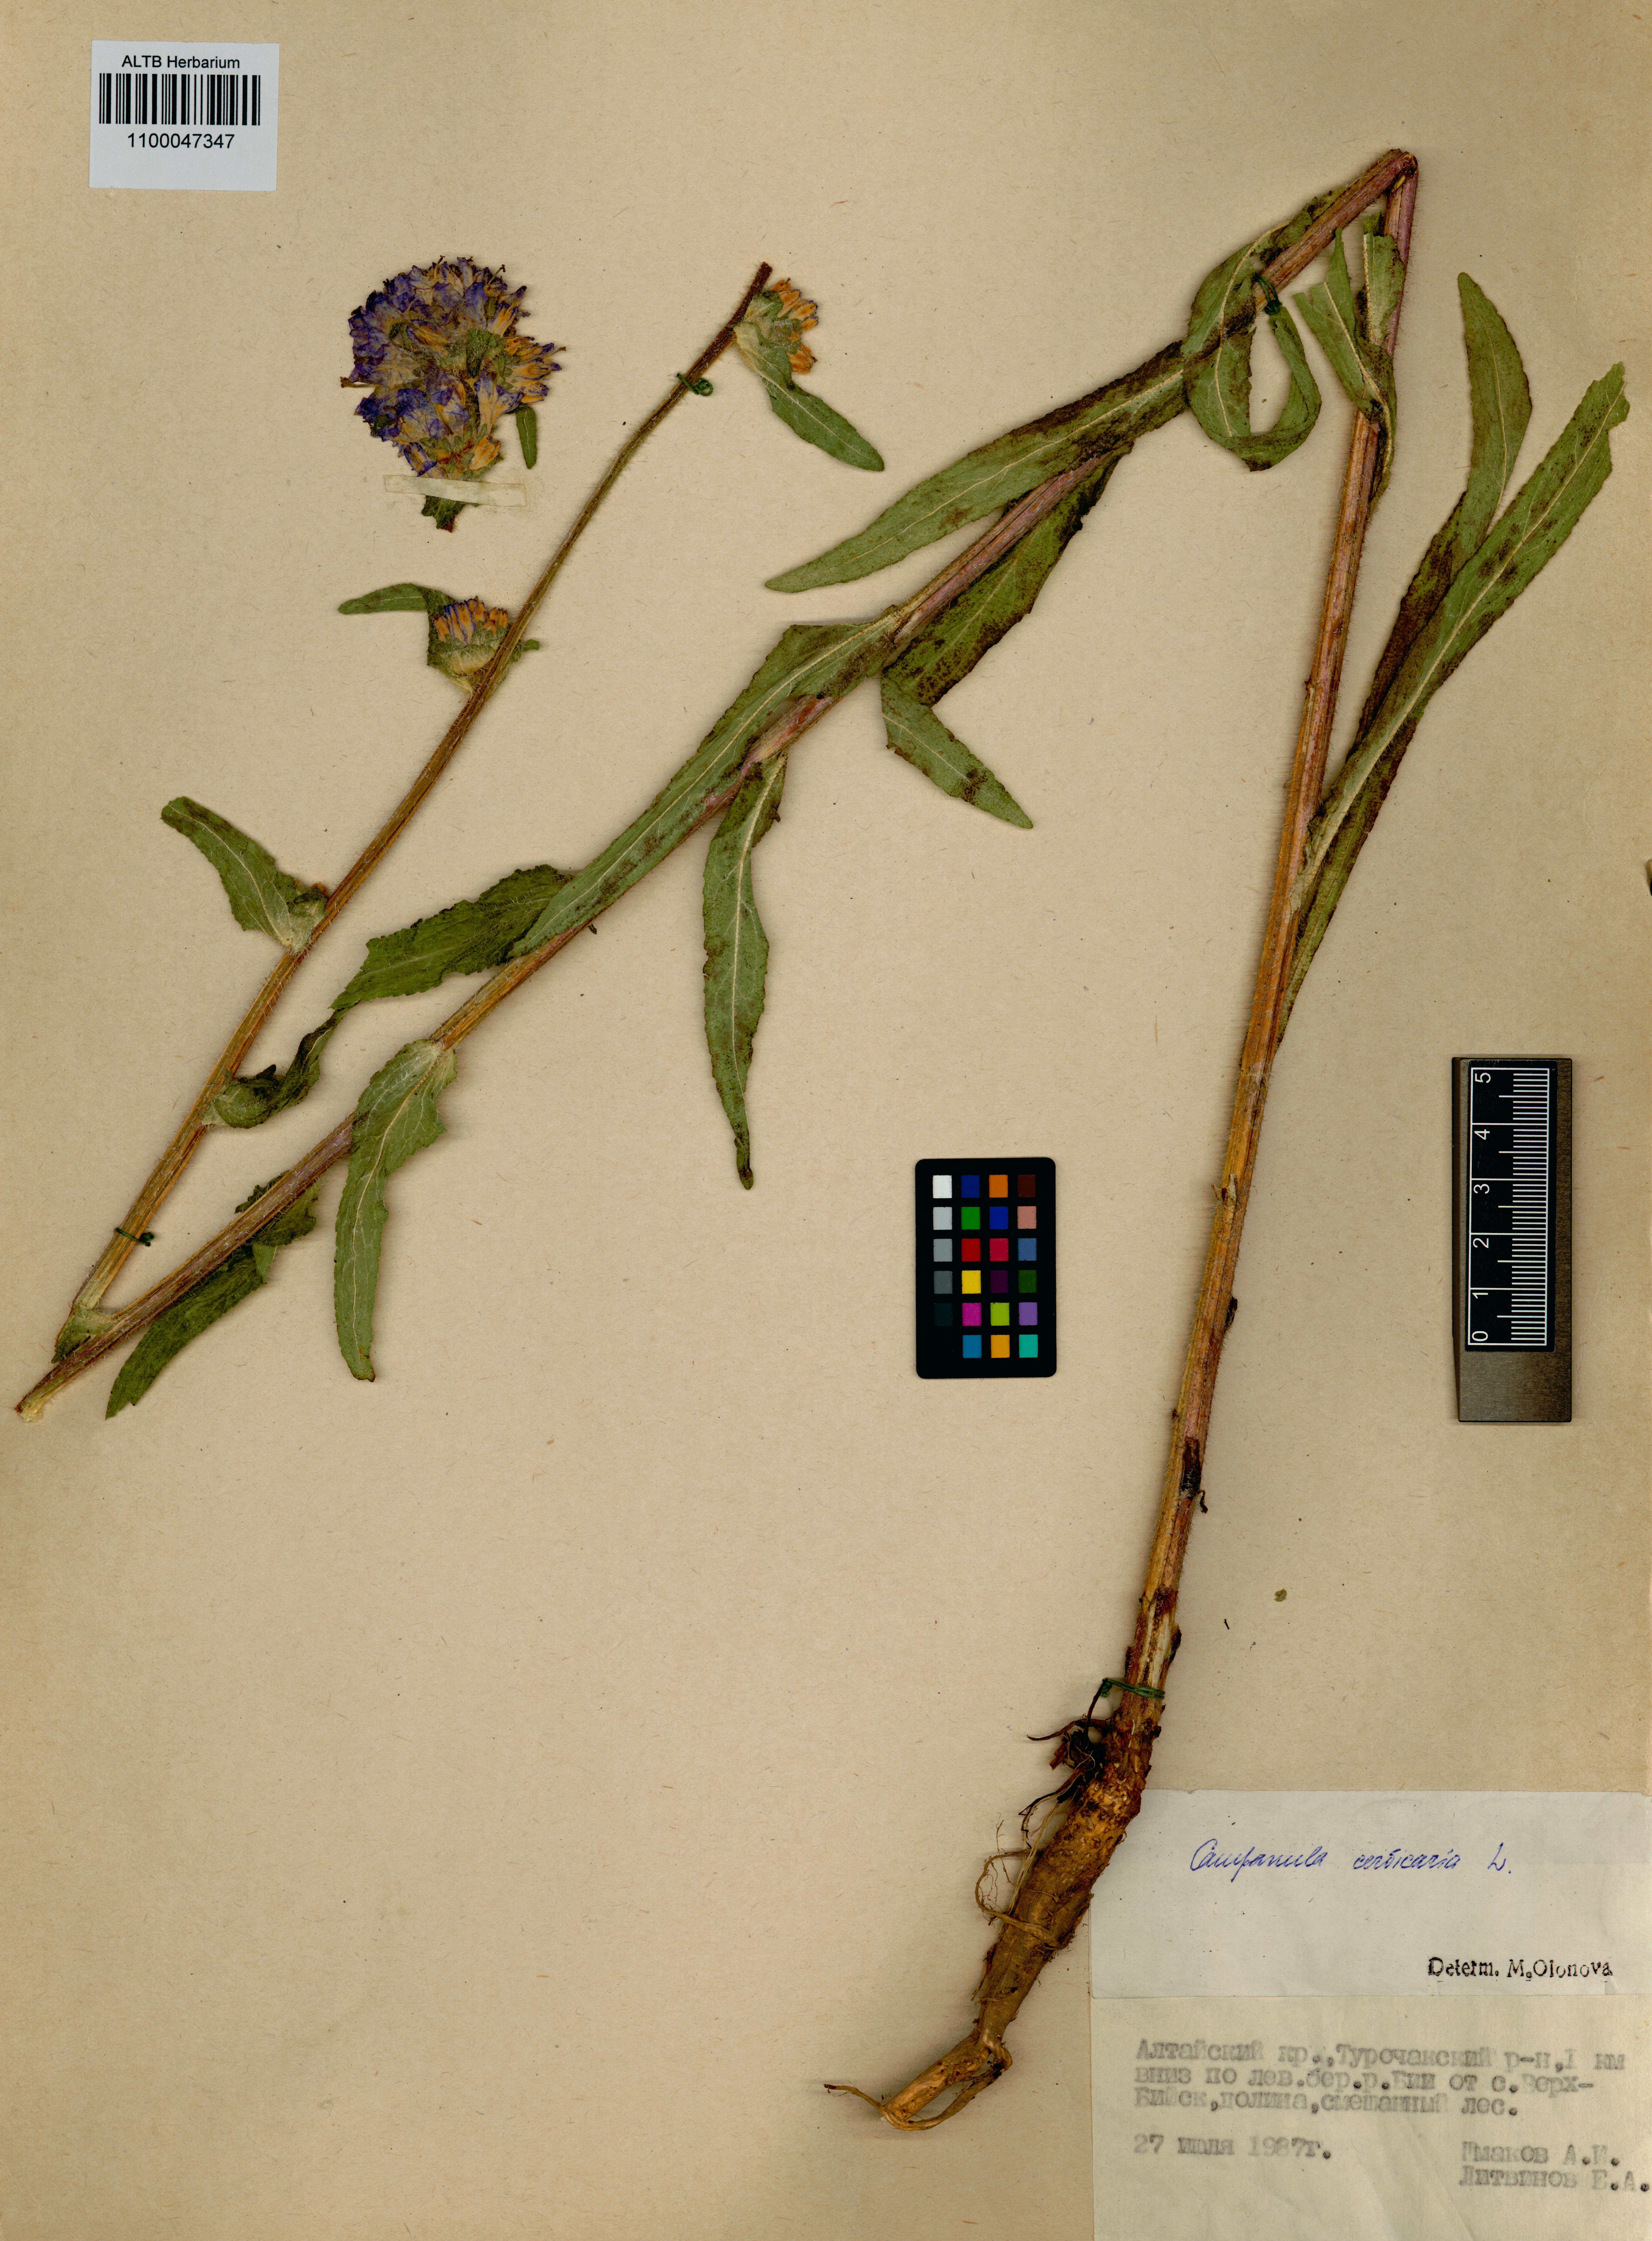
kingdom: Plantae
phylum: Tracheophyta
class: Magnoliopsida
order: Asterales
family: Campanulaceae
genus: Campanula
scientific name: Campanula cervicaria
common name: Bristly bellflower
